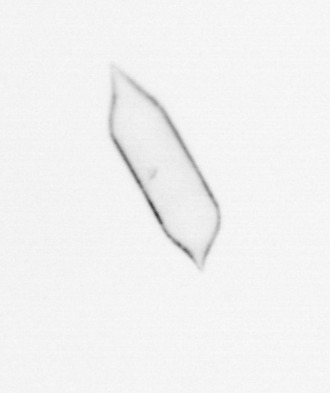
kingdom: Chromista
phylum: Ochrophyta
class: Bacillariophyceae
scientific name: Bacillariophyceae
